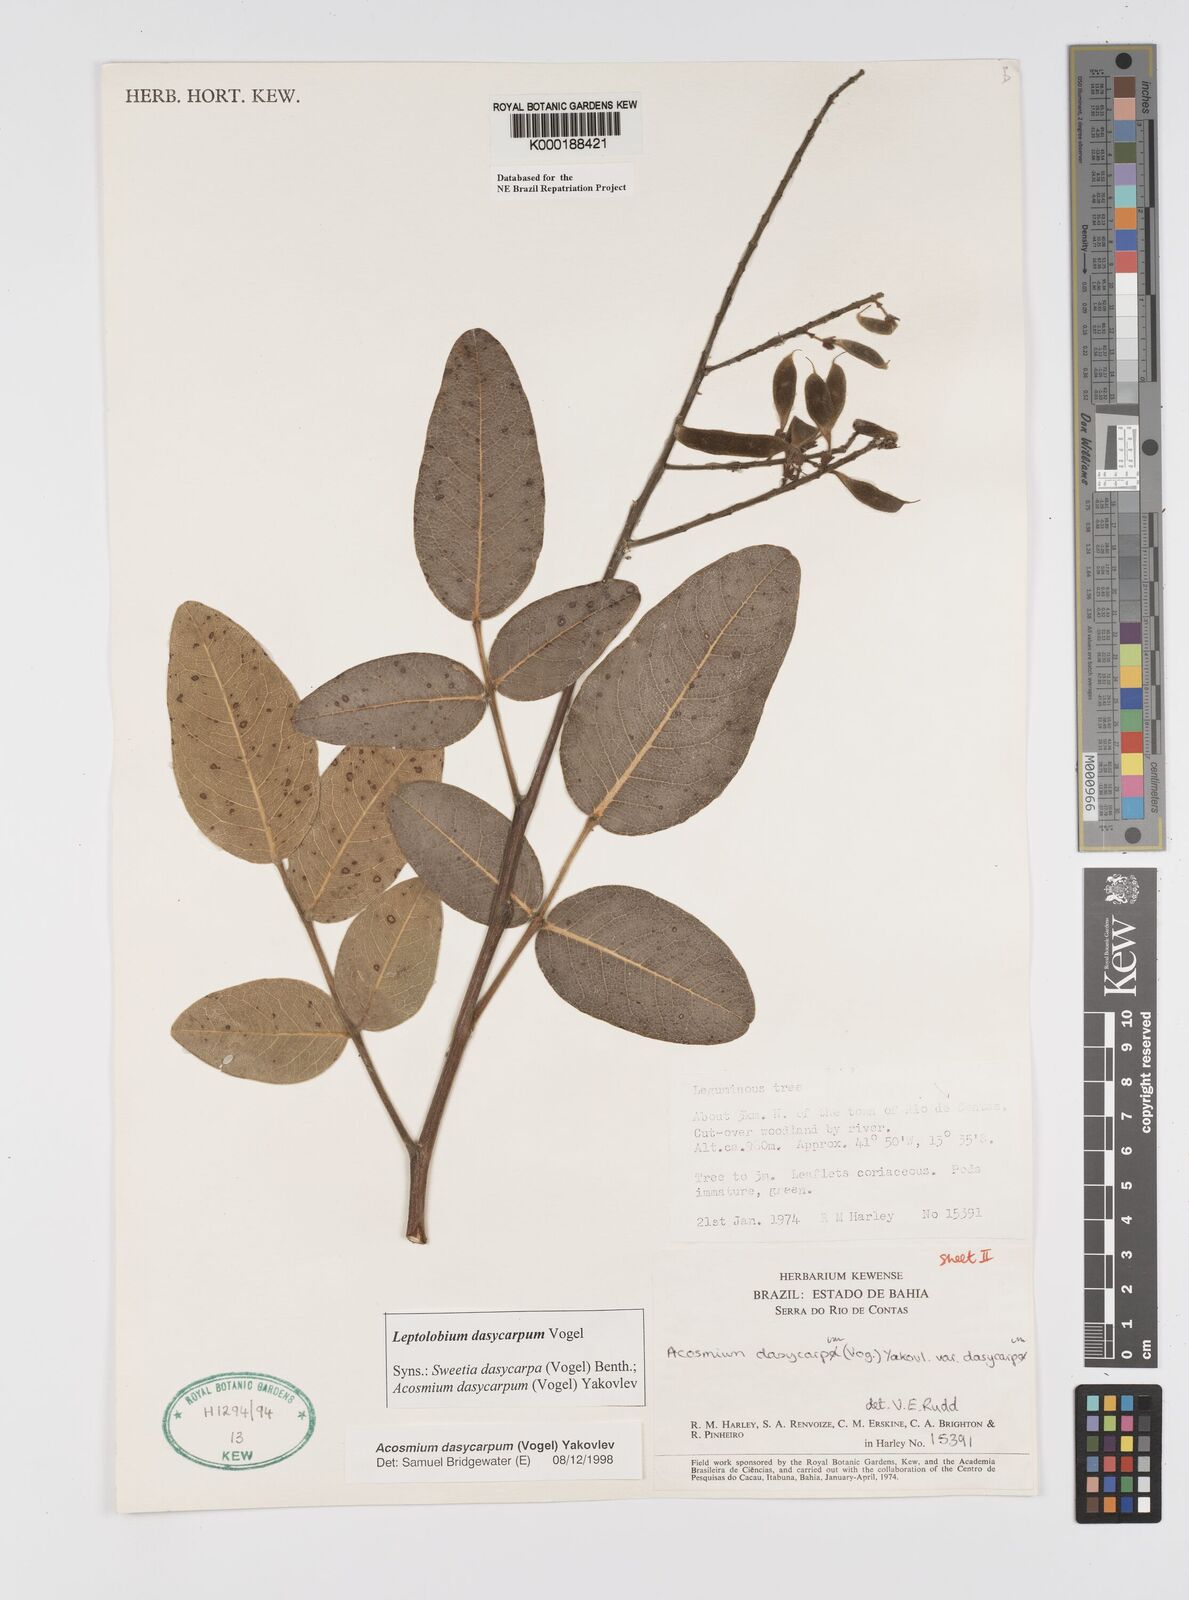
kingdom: Plantae
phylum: Tracheophyta
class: Magnoliopsida
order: Fabales
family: Fabaceae
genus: Leptolobium
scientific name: Leptolobium dasycarpum
